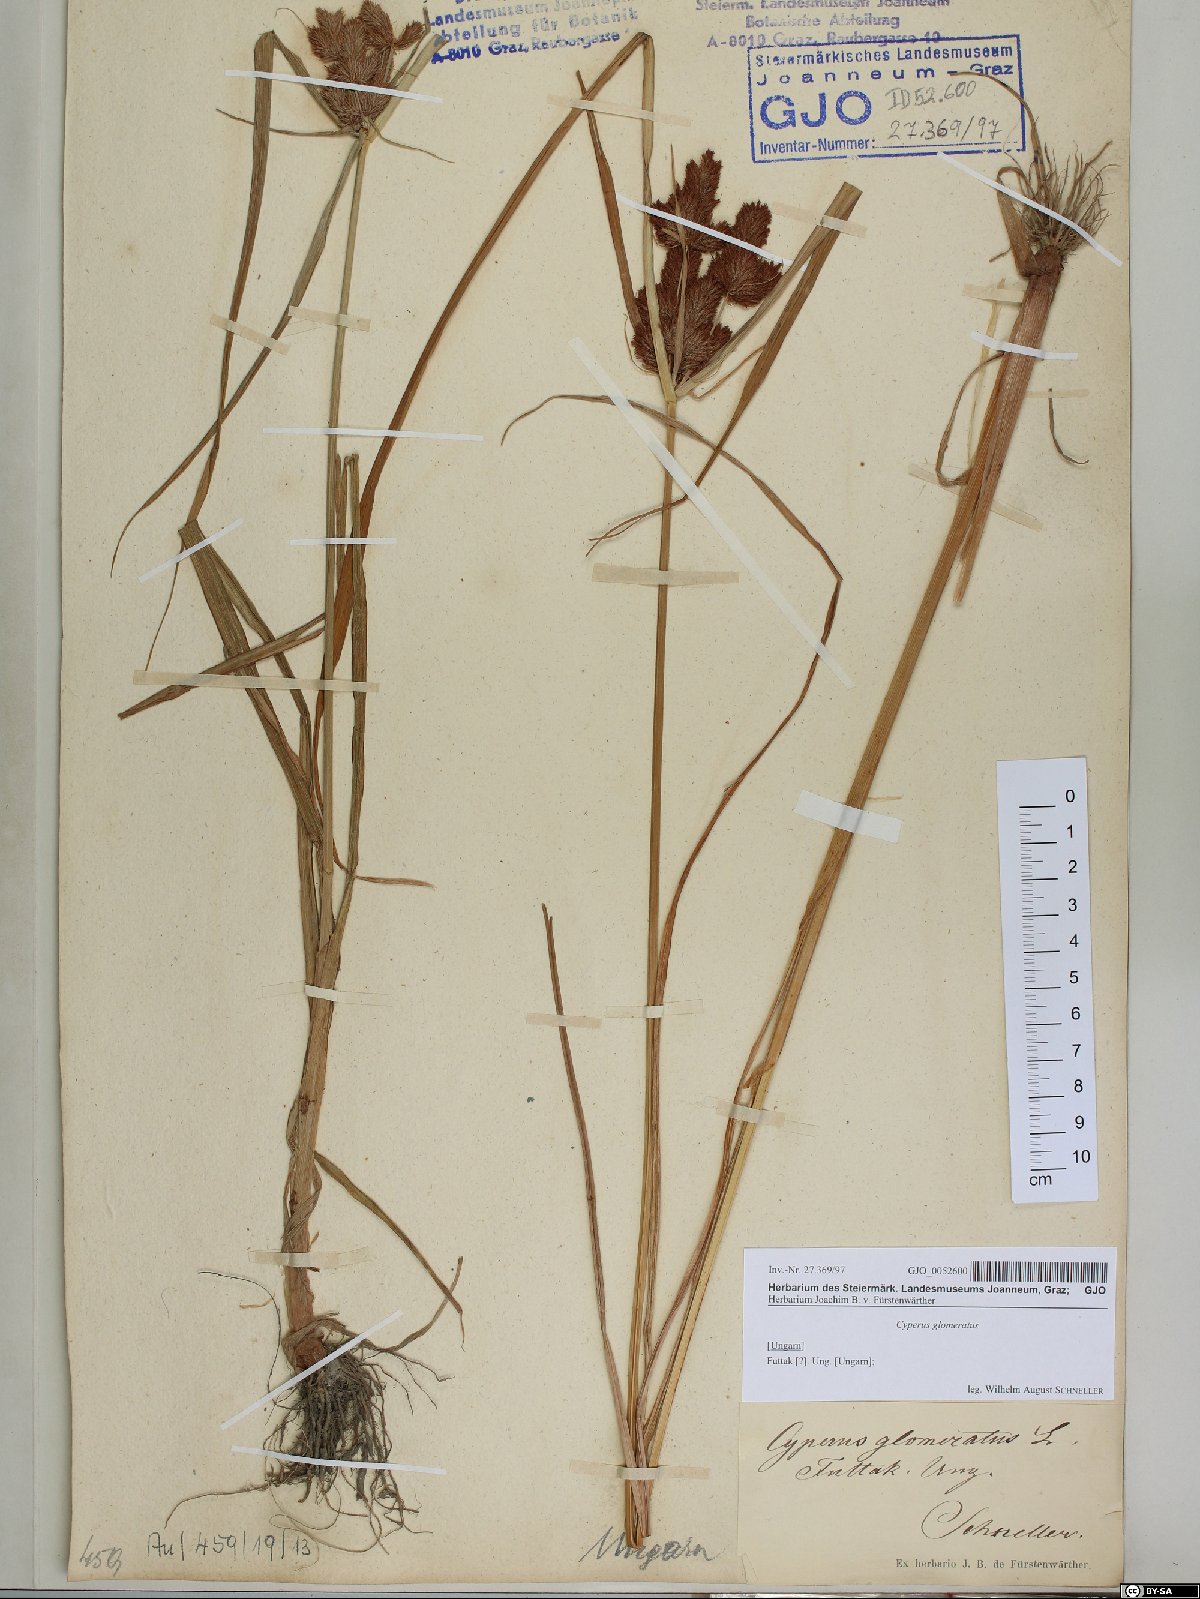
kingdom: Plantae
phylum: Tracheophyta
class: Liliopsida
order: Poales
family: Cyperaceae
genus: Cyperus
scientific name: Cyperus glomeratus
